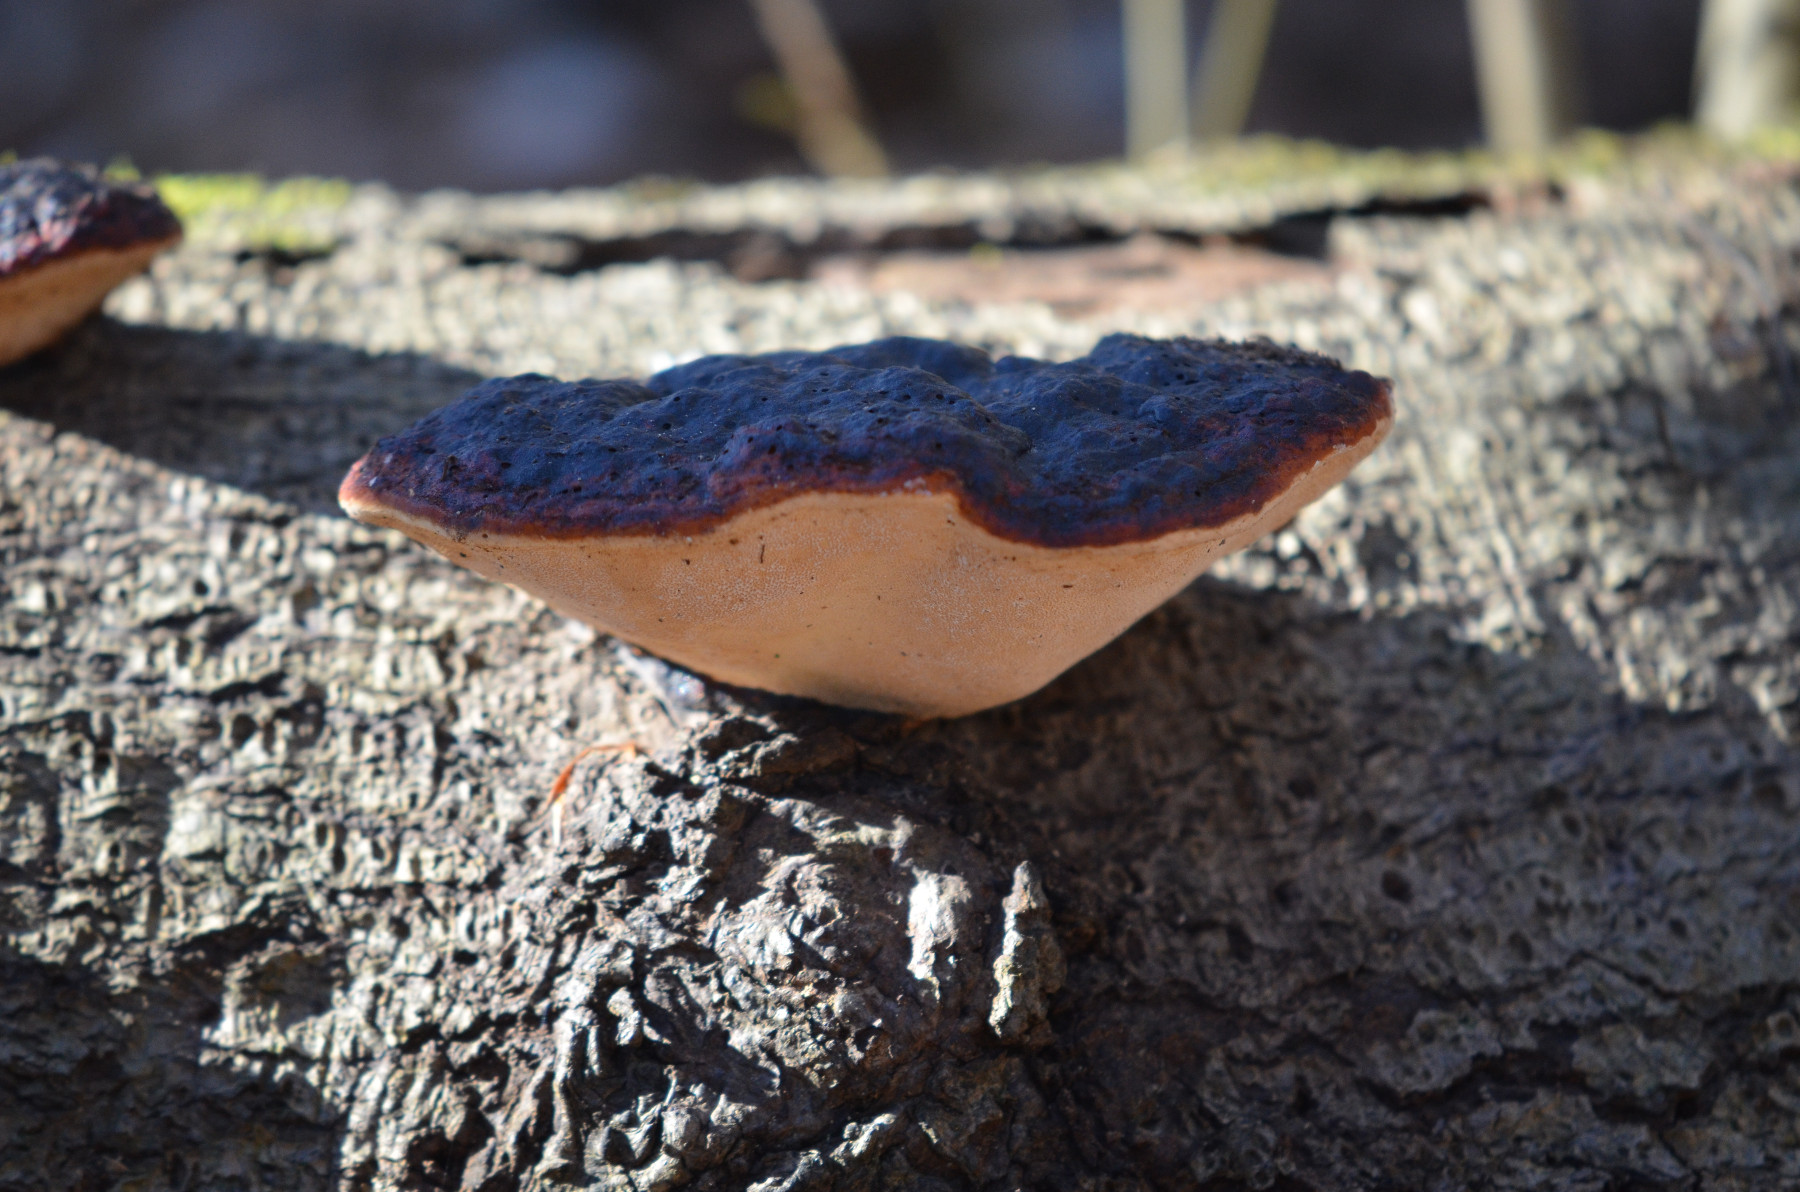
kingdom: Fungi
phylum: Basidiomycota
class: Agaricomycetes
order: Polyporales
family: Fomitopsidaceae
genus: Fomitopsis
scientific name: Fomitopsis pinicola
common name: randbæltet hovporesvamp
